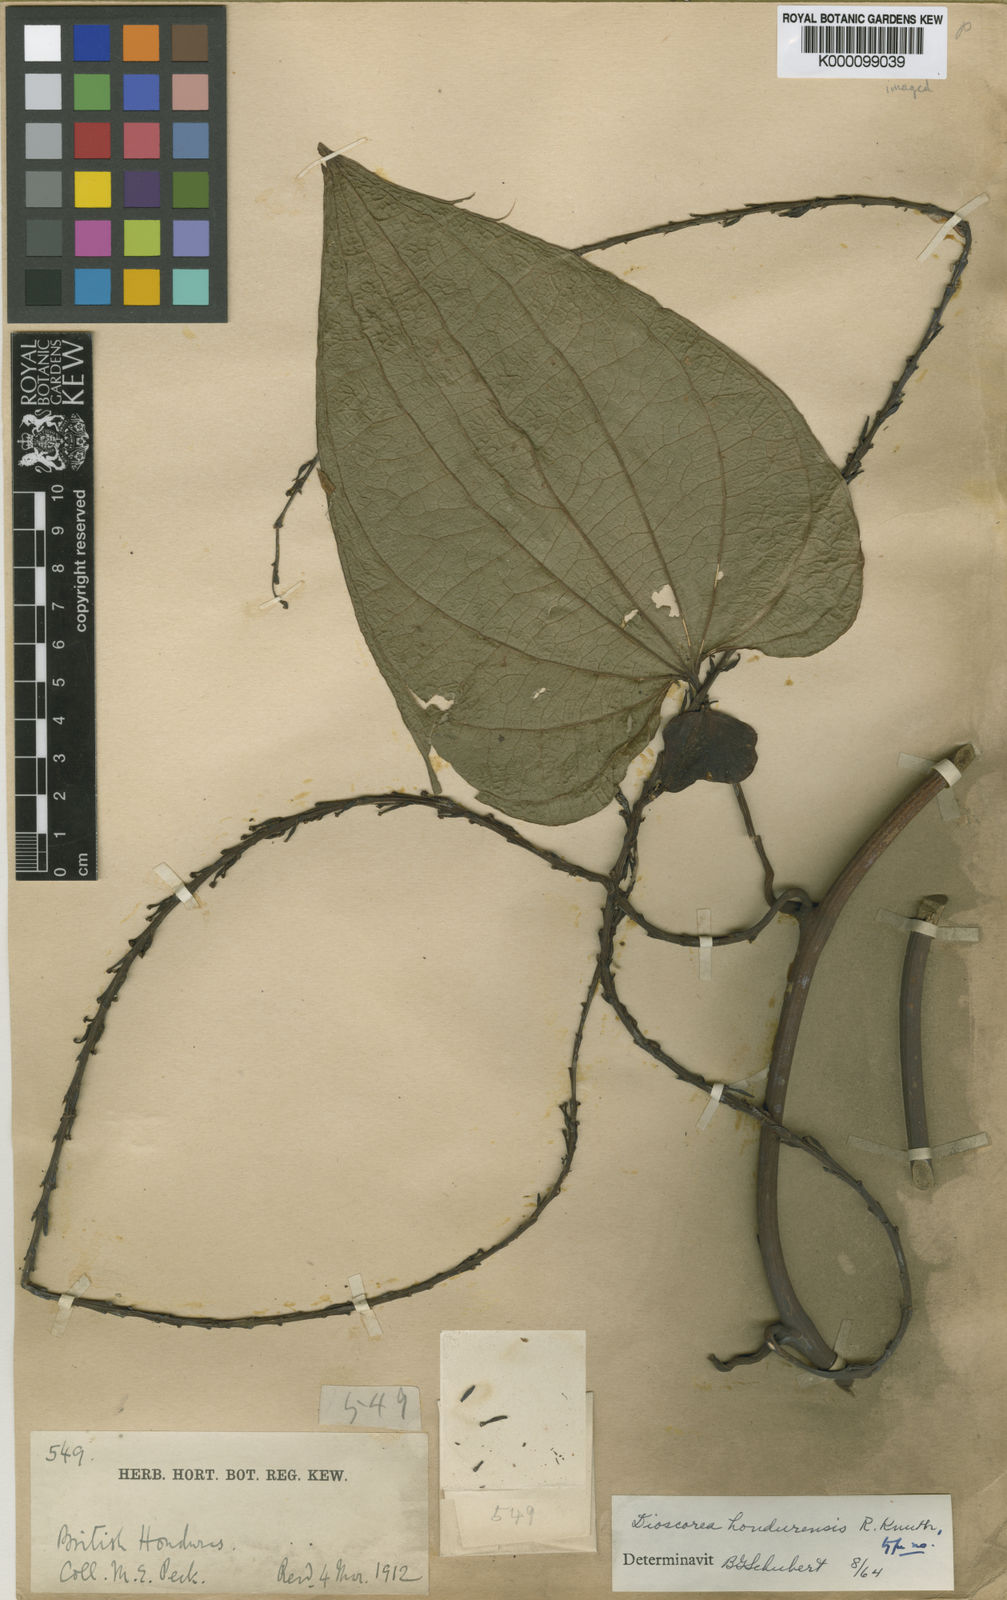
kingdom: Plantae
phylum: Tracheophyta
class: Liliopsida
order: Dioscoreales
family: Dioscoreaceae
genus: Dioscorea
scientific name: Dioscorea hondurensis
